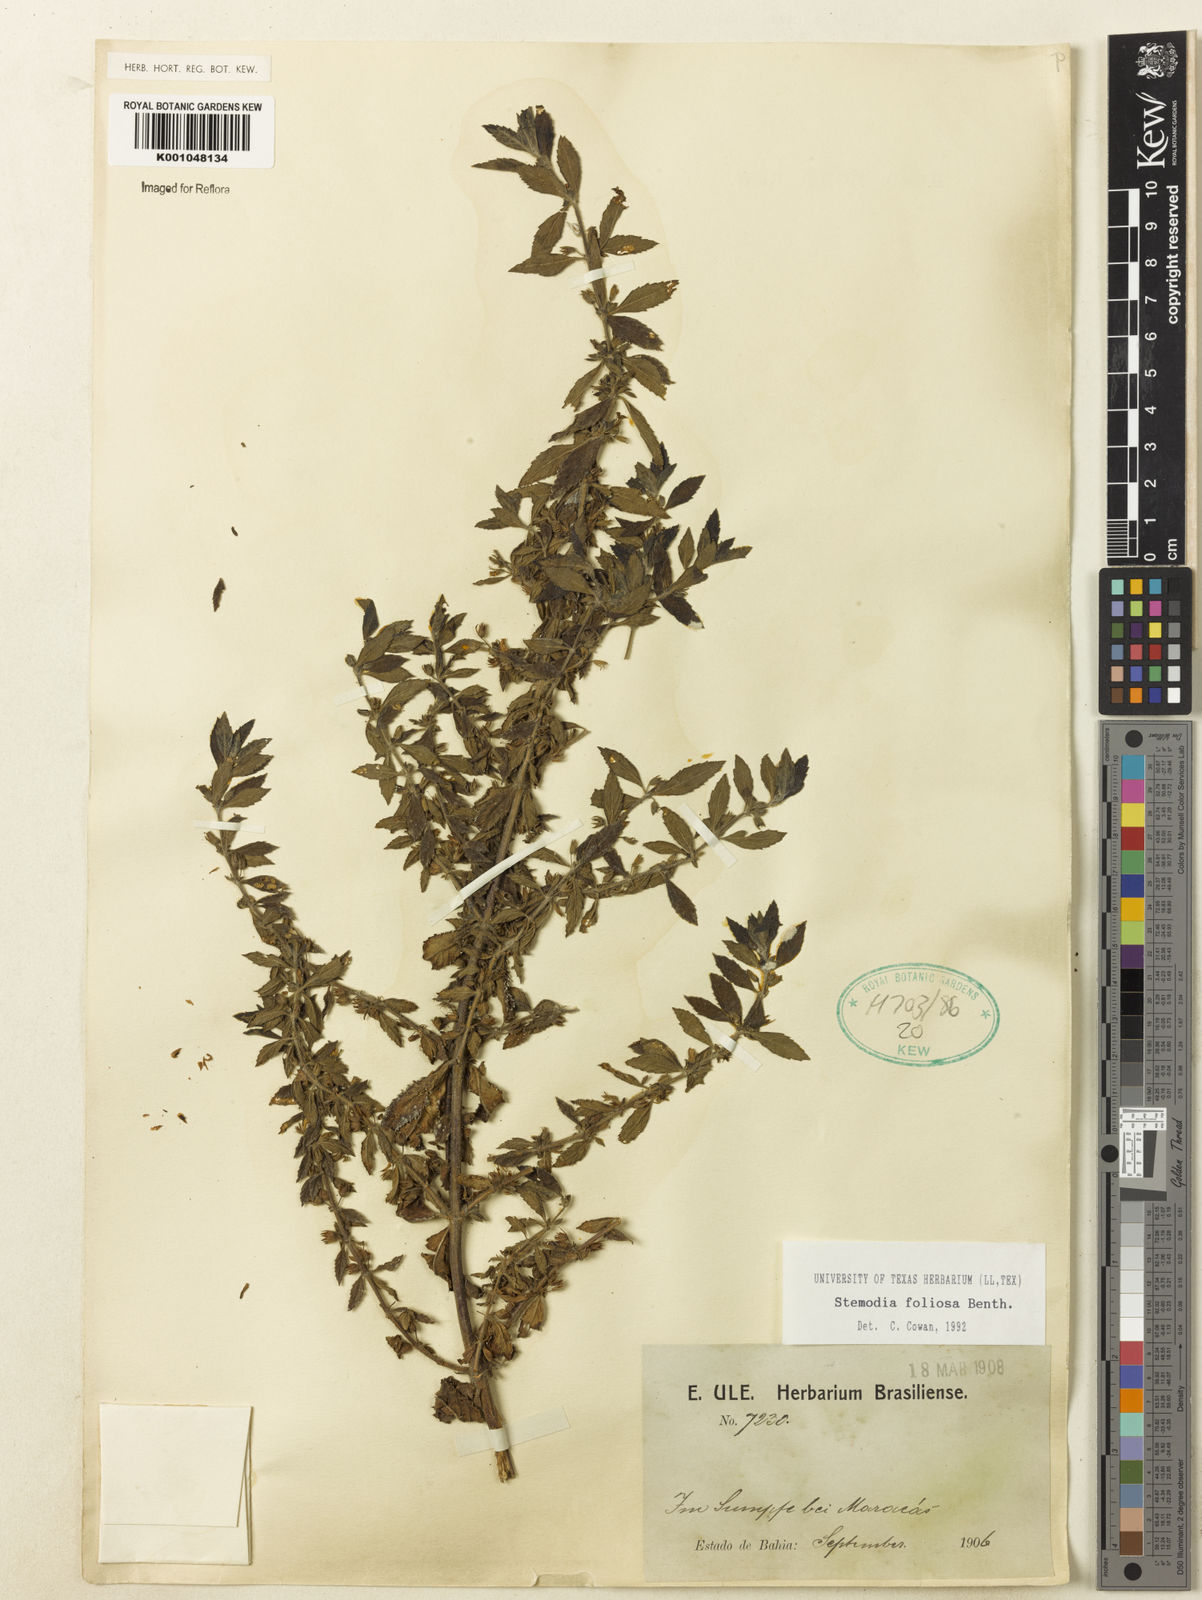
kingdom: Plantae
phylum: Tracheophyta
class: Magnoliopsida
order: Lamiales
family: Plantaginaceae
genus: Stemodia
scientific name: Stemodia foliosa
